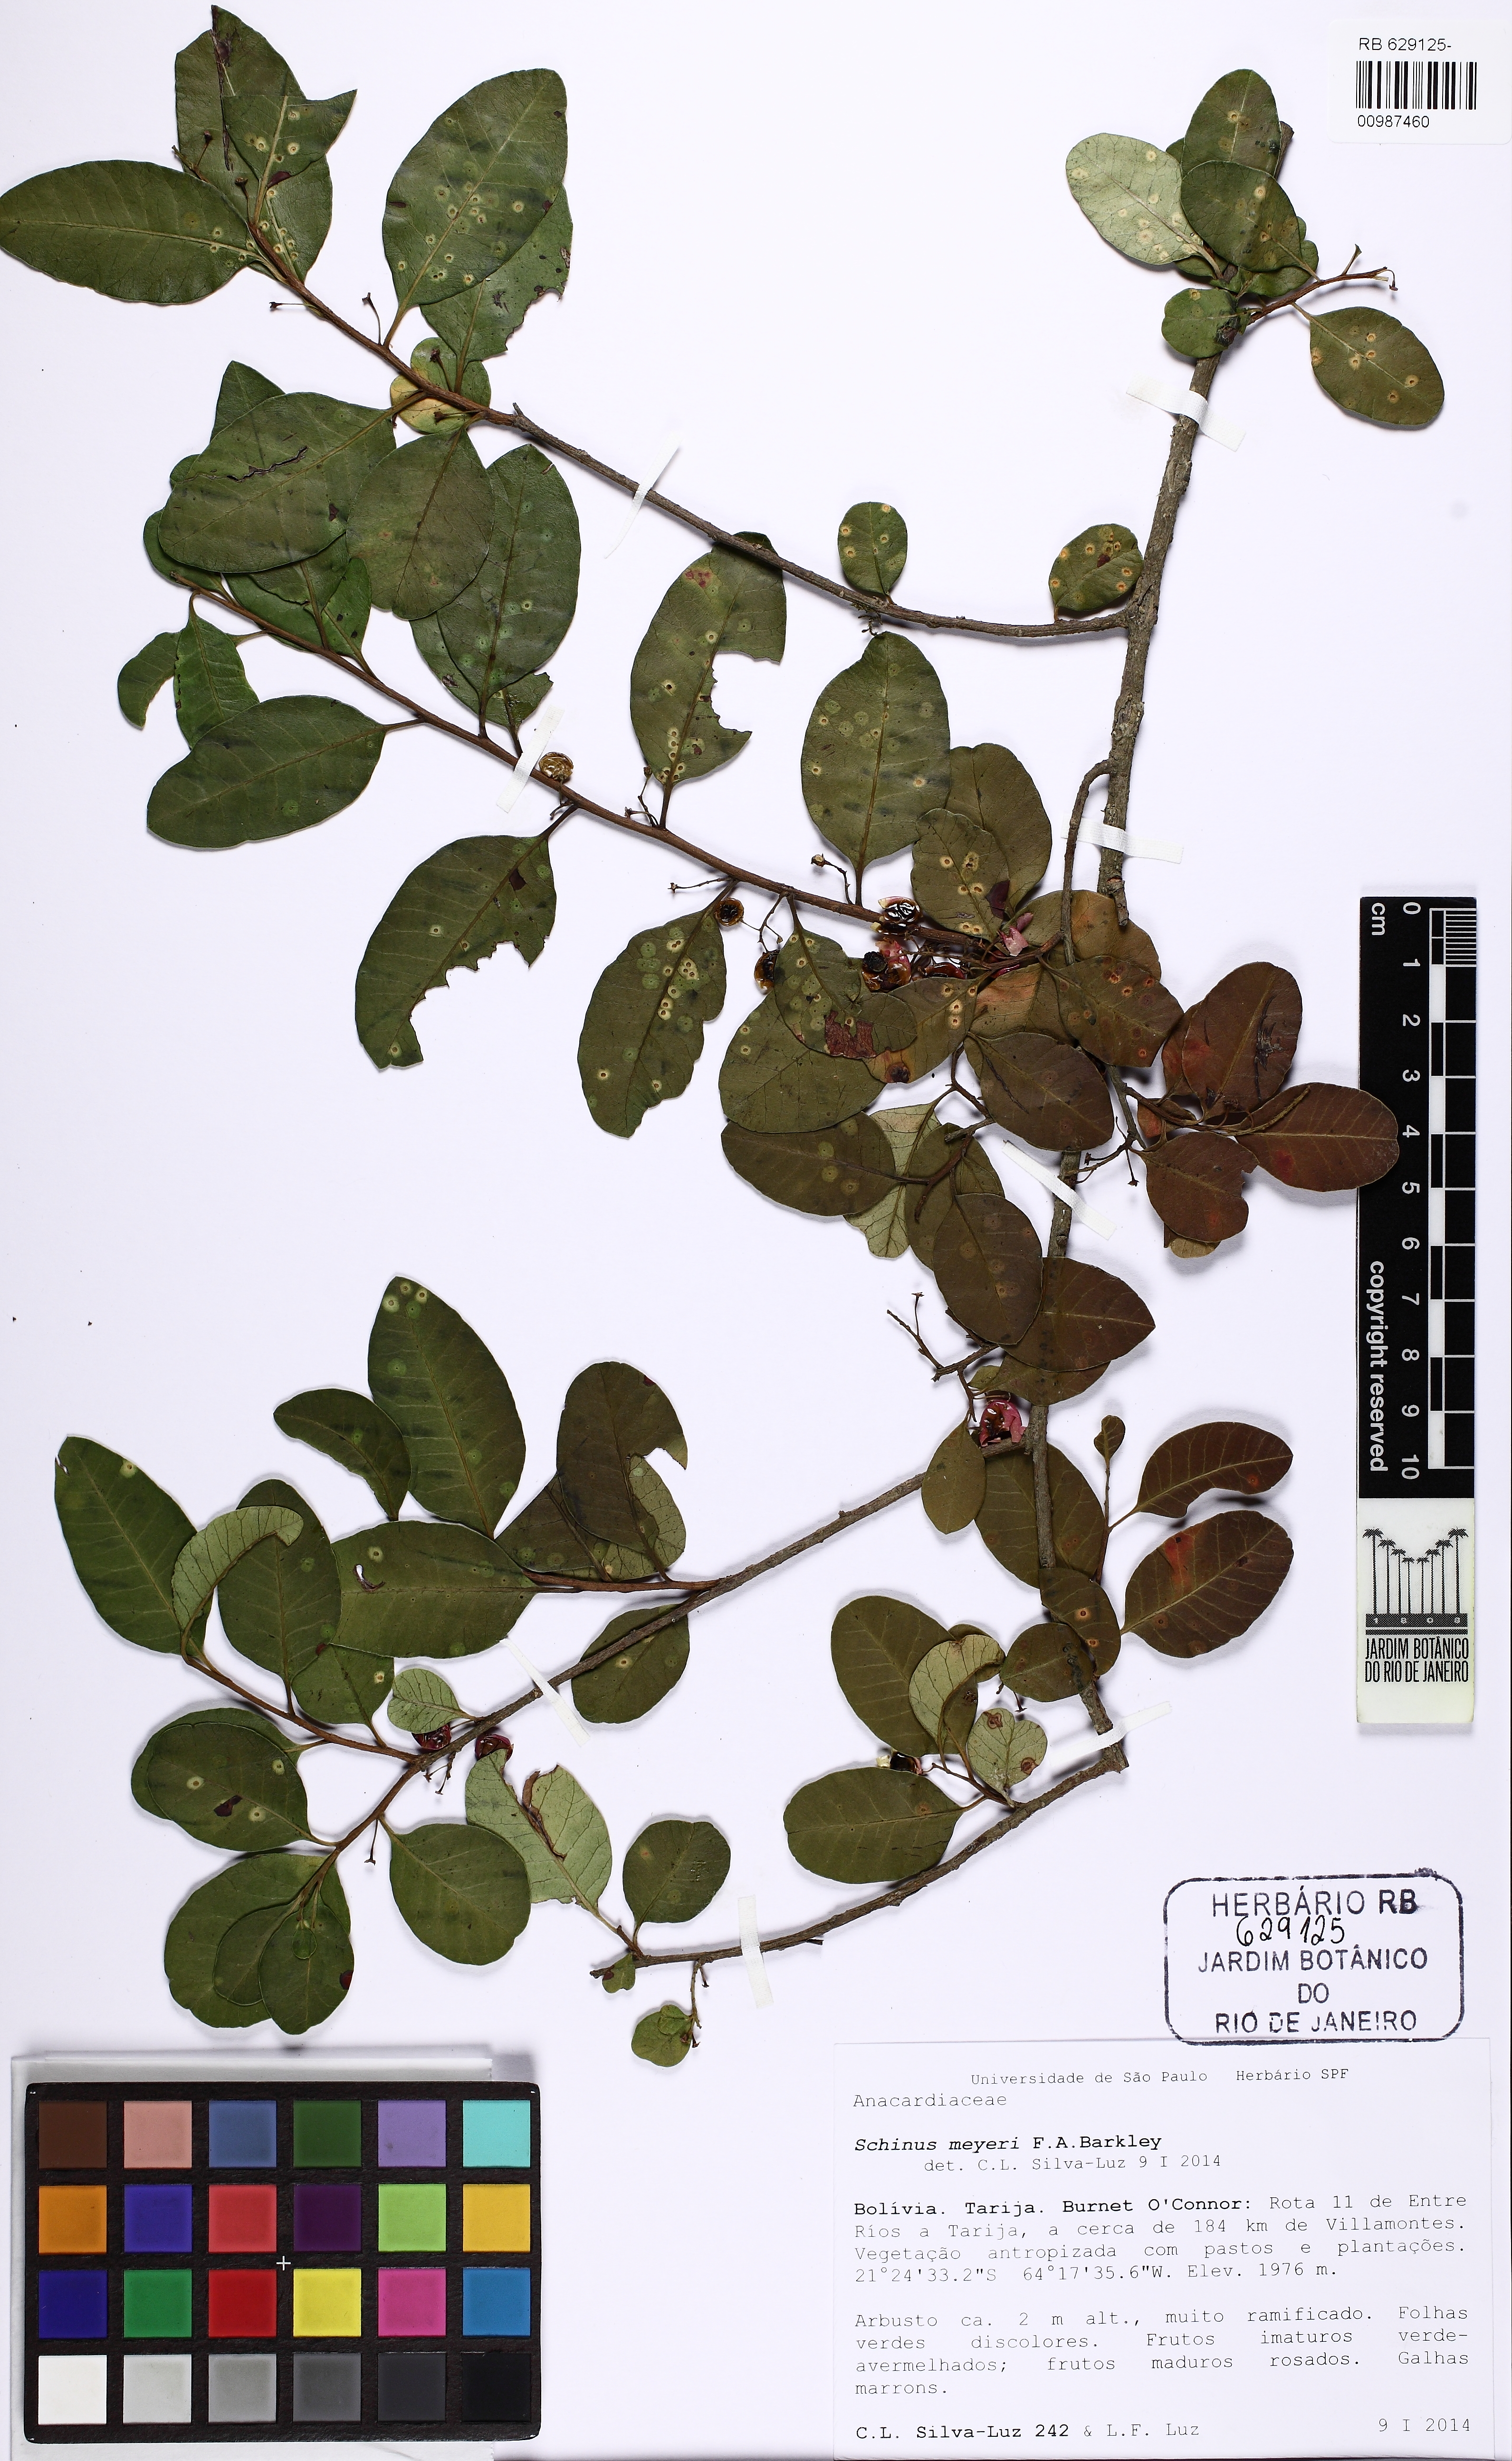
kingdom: Plantae
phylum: Tracheophyta
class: Magnoliopsida
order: Sapindales
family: Anacardiaceae
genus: Schinus
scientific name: Schinus meyeri
